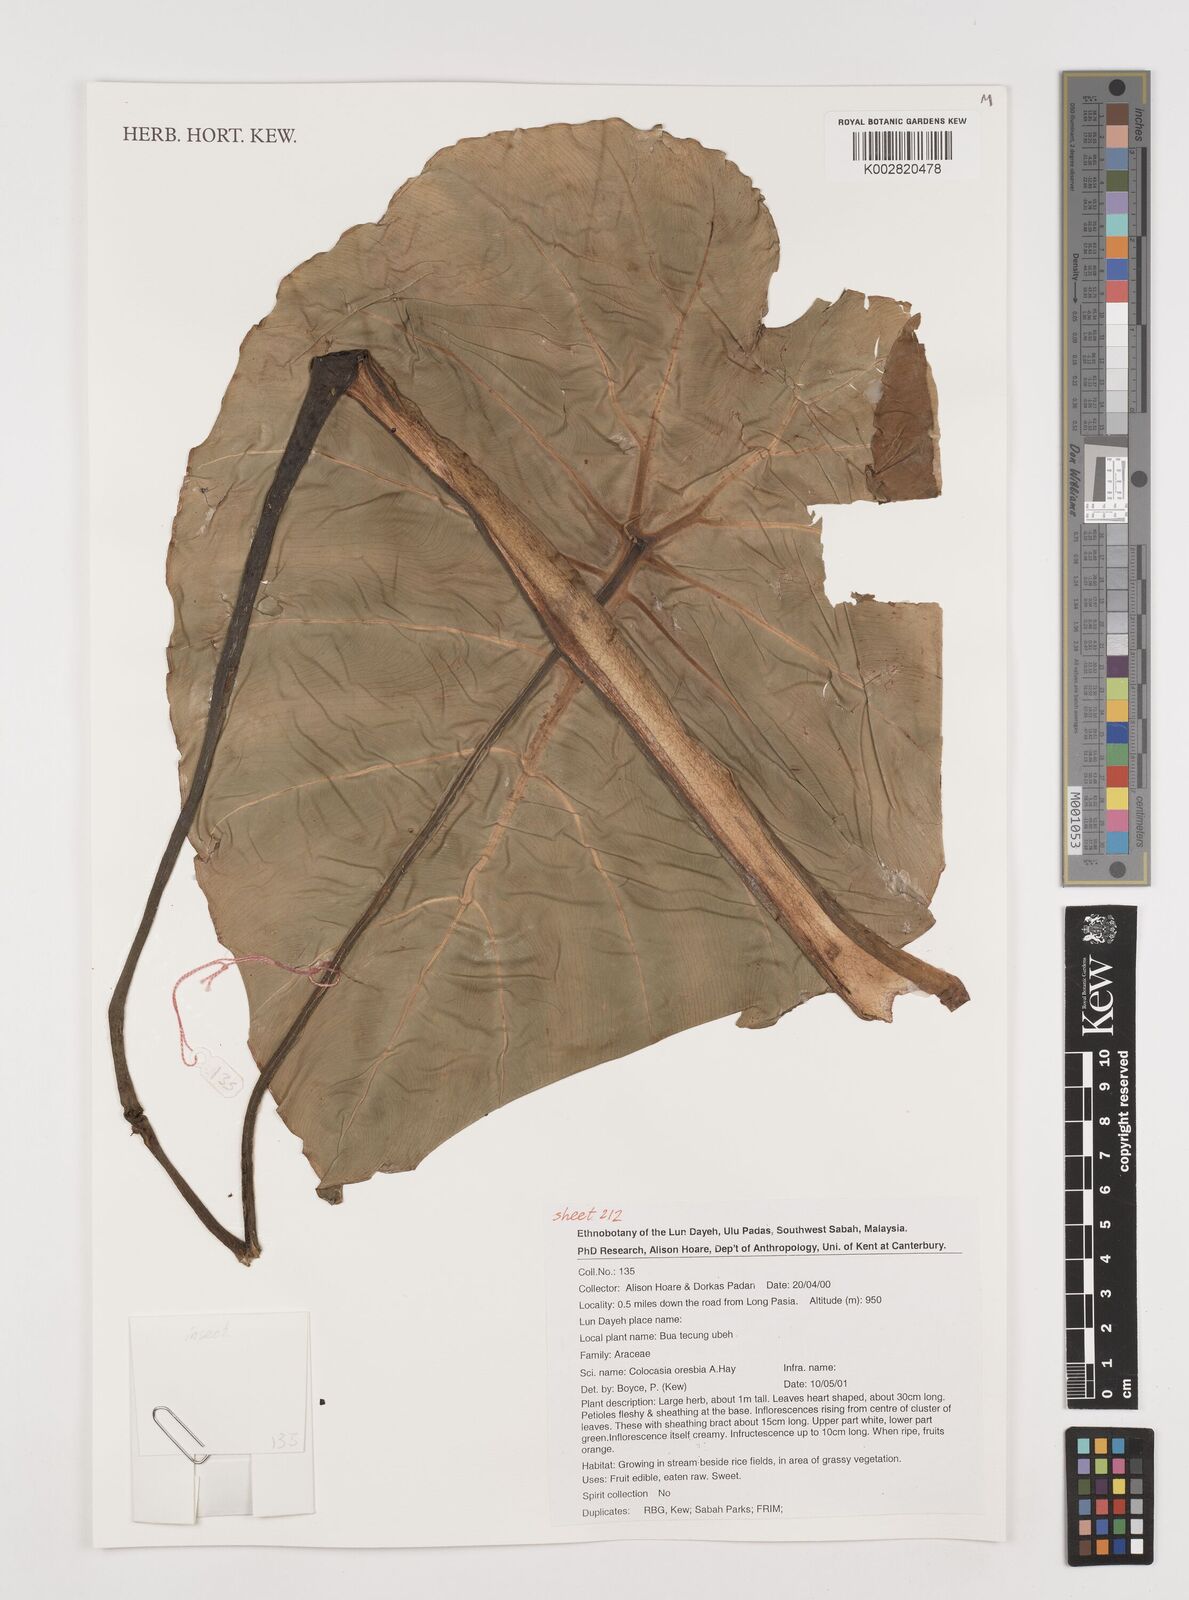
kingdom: Plantae
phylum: Tracheophyta
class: Liliopsida
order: Alismatales
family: Araceae
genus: Colocasia
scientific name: Colocasia oresbia
